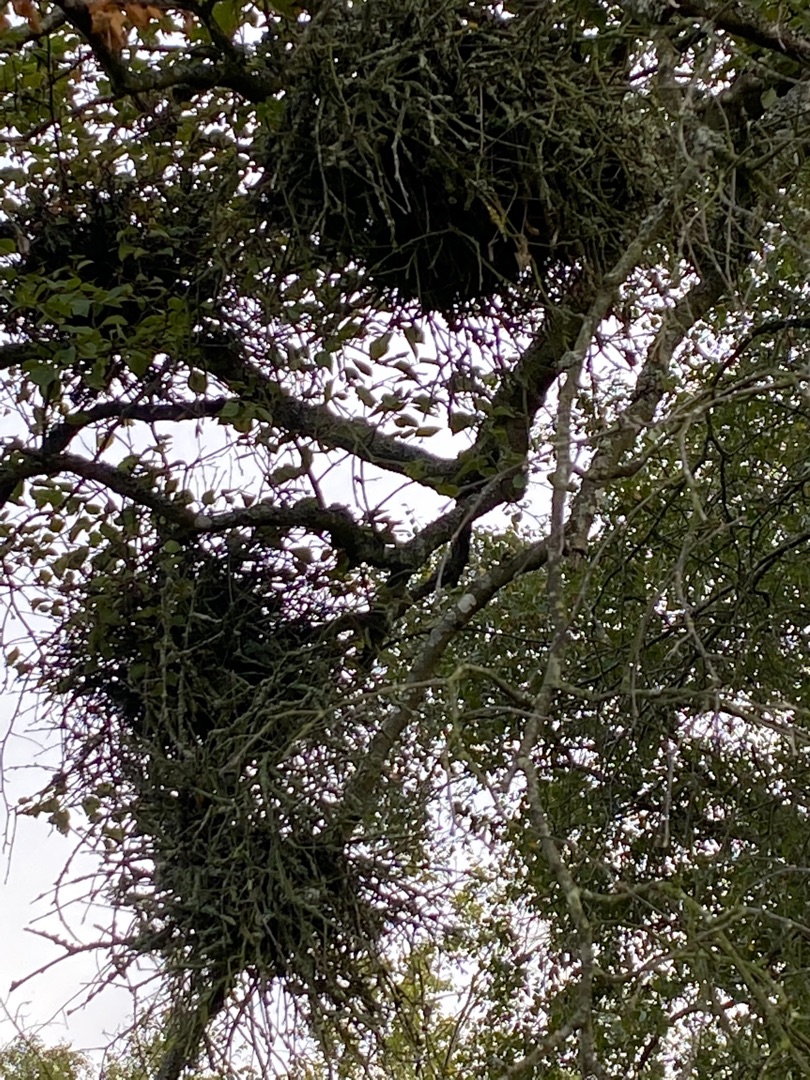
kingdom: Fungi
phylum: Ascomycota
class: Taphrinomycetes
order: Taphrinales
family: Taphrinaceae
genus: Taphrina
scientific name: Taphrina betulina
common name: Hekse-sækdug
